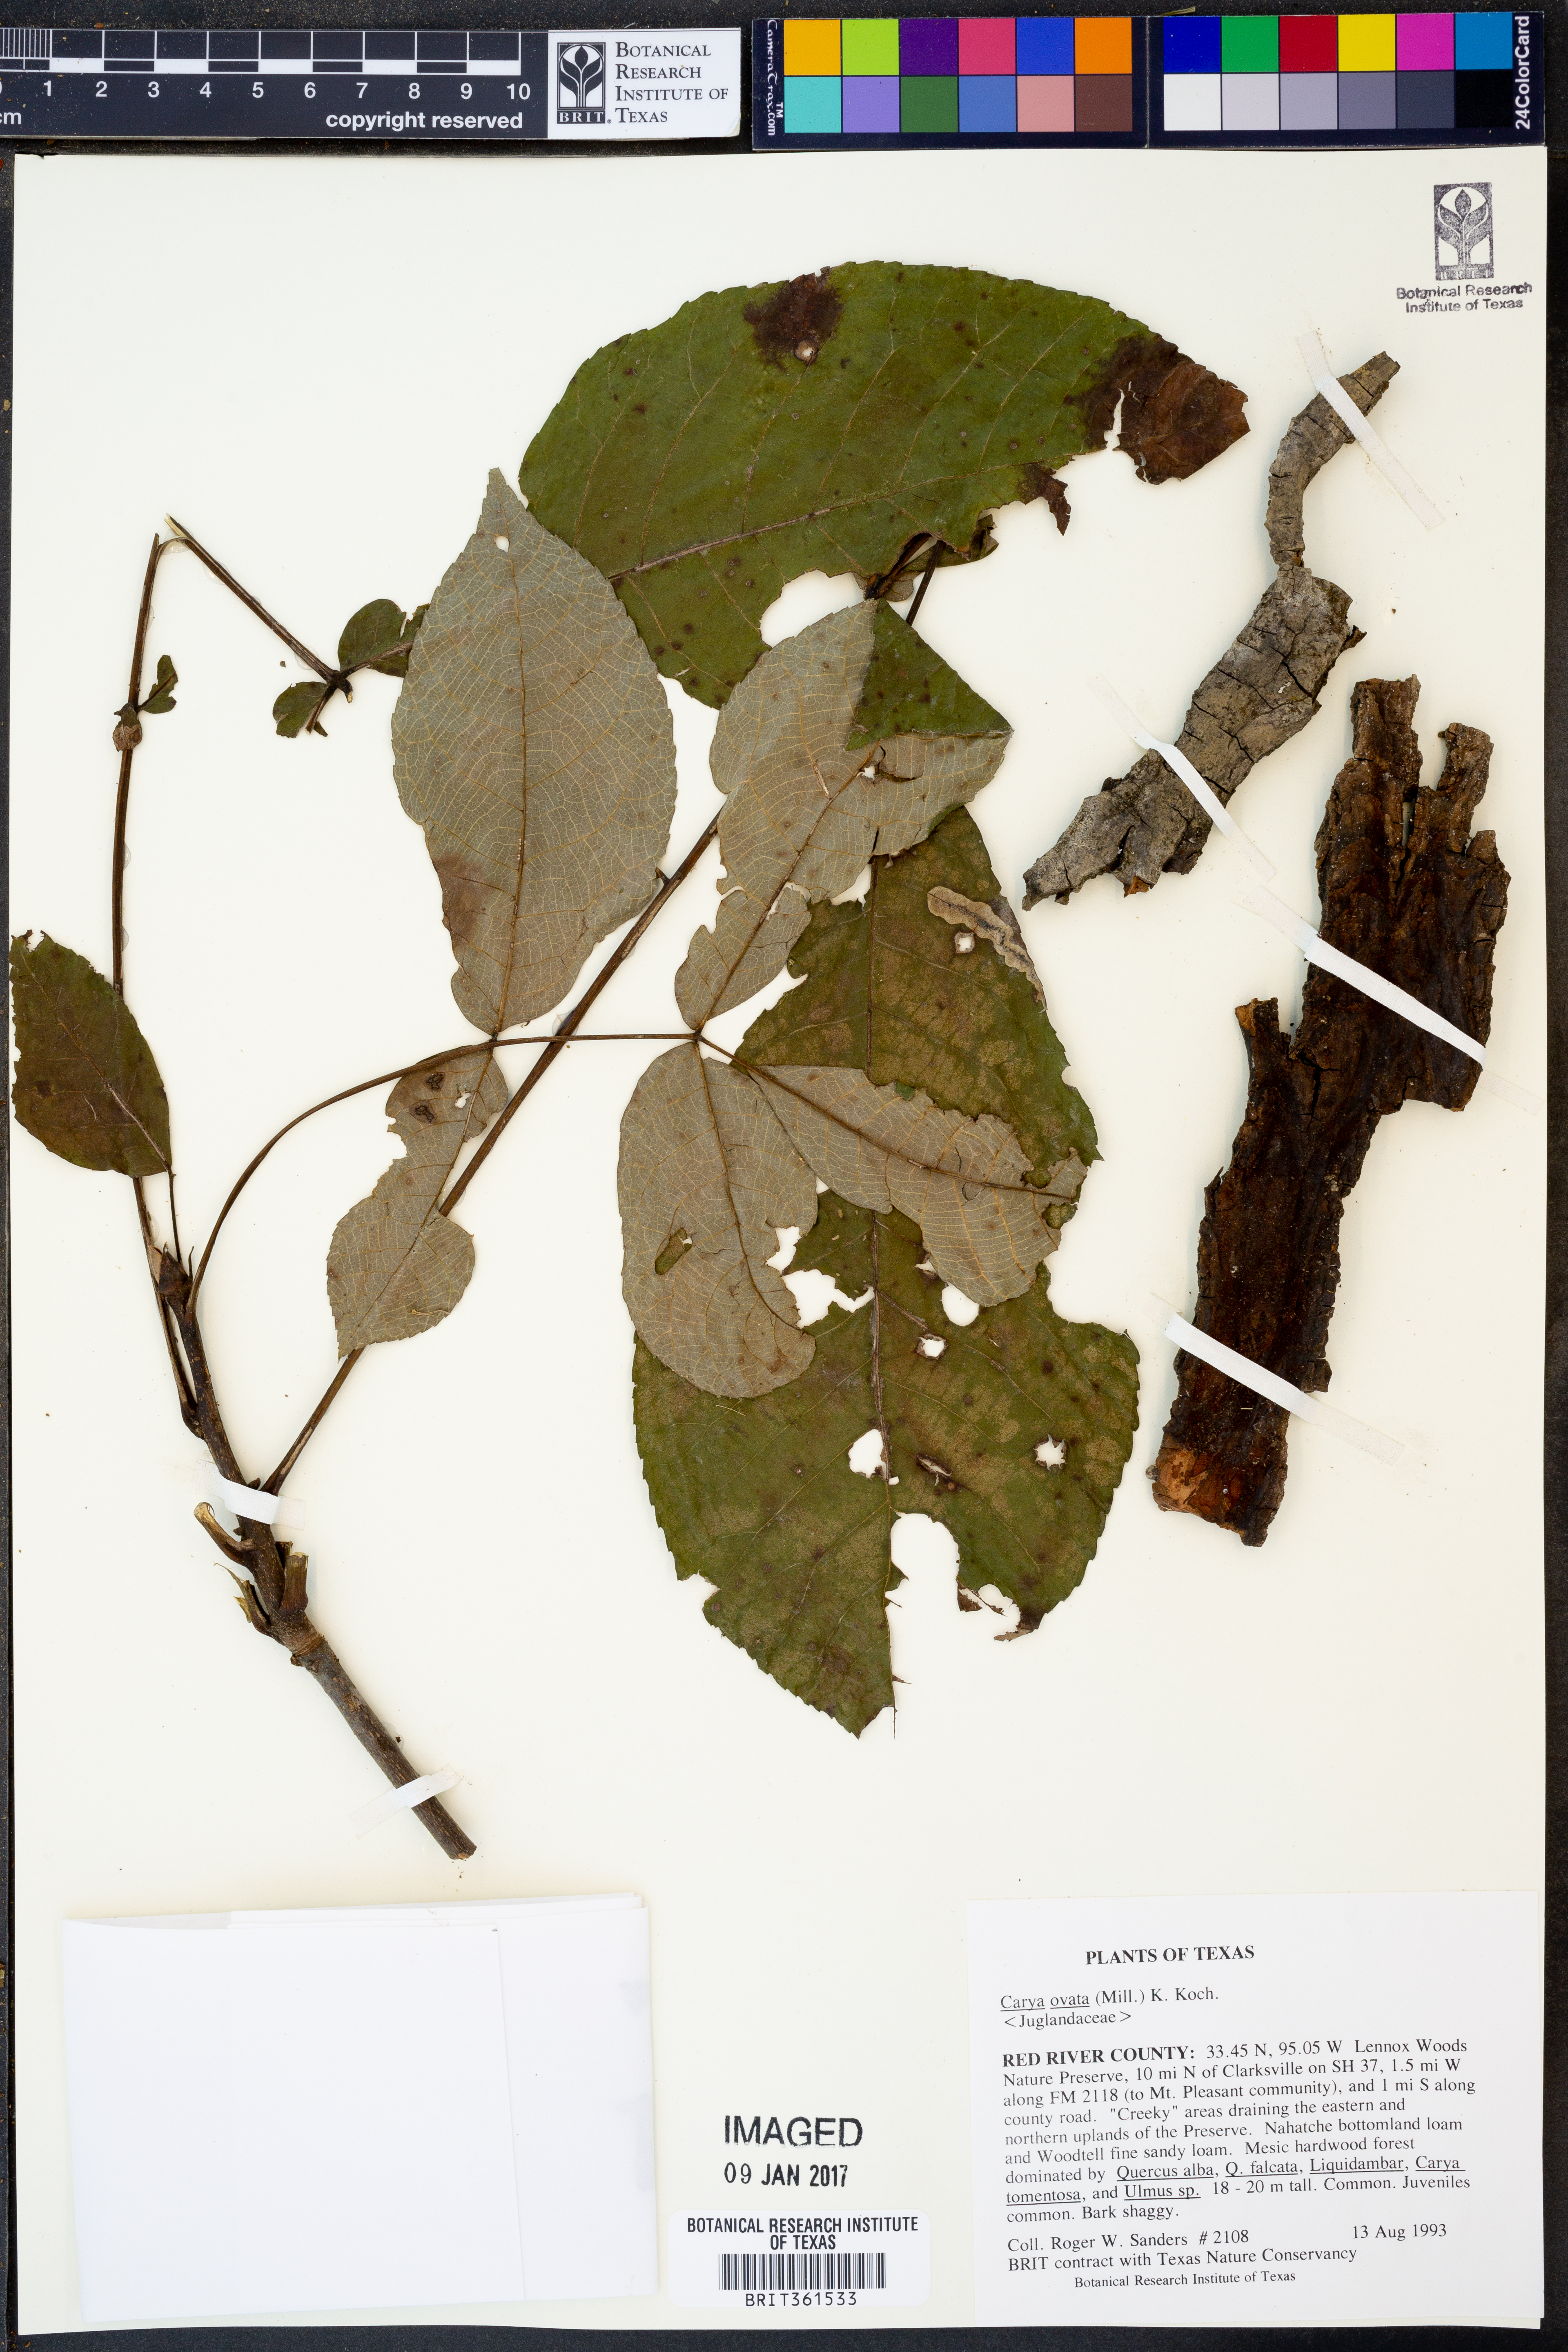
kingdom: Plantae
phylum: Tracheophyta
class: Magnoliopsida
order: Fagales
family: Juglandaceae
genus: Carya
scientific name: Carya ovata
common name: Shagbark hickory
